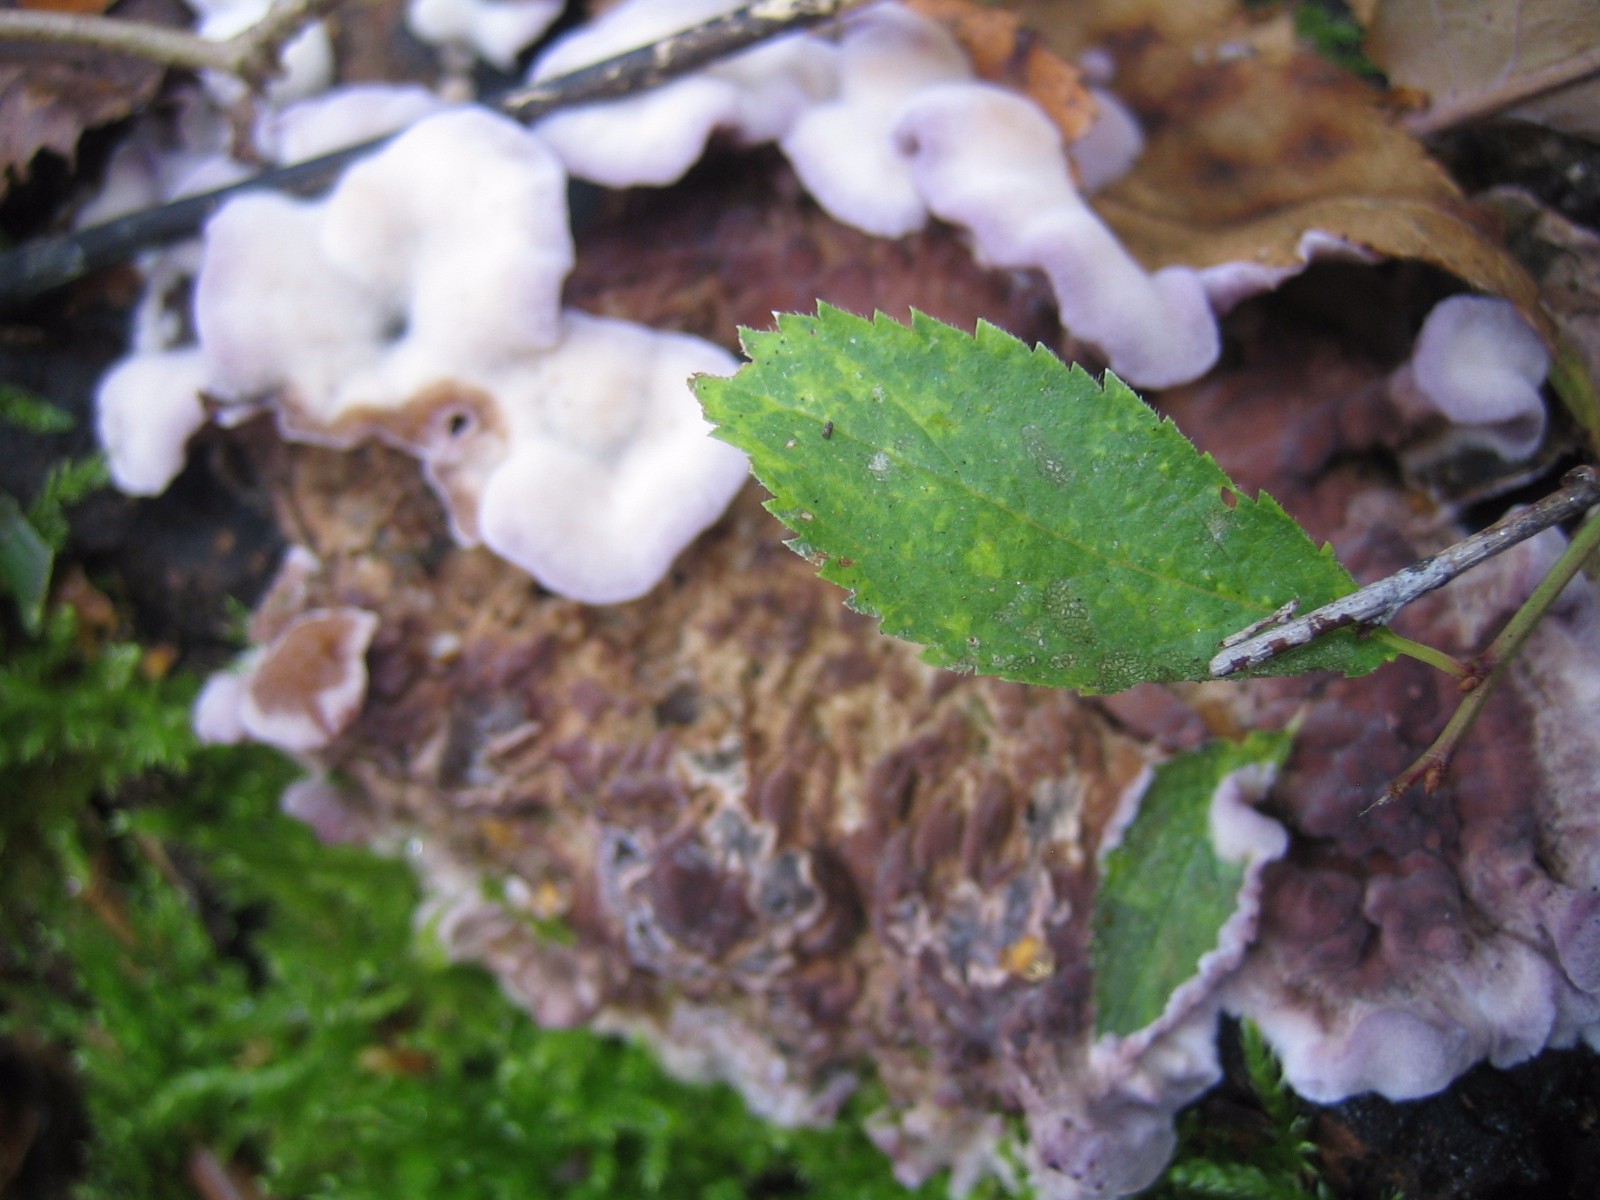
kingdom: Fungi
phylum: Basidiomycota
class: Agaricomycetes
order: Agaricales
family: Cyphellaceae
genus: Chondrostereum
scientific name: Chondrostereum purpureum
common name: purpurlædersvamp
